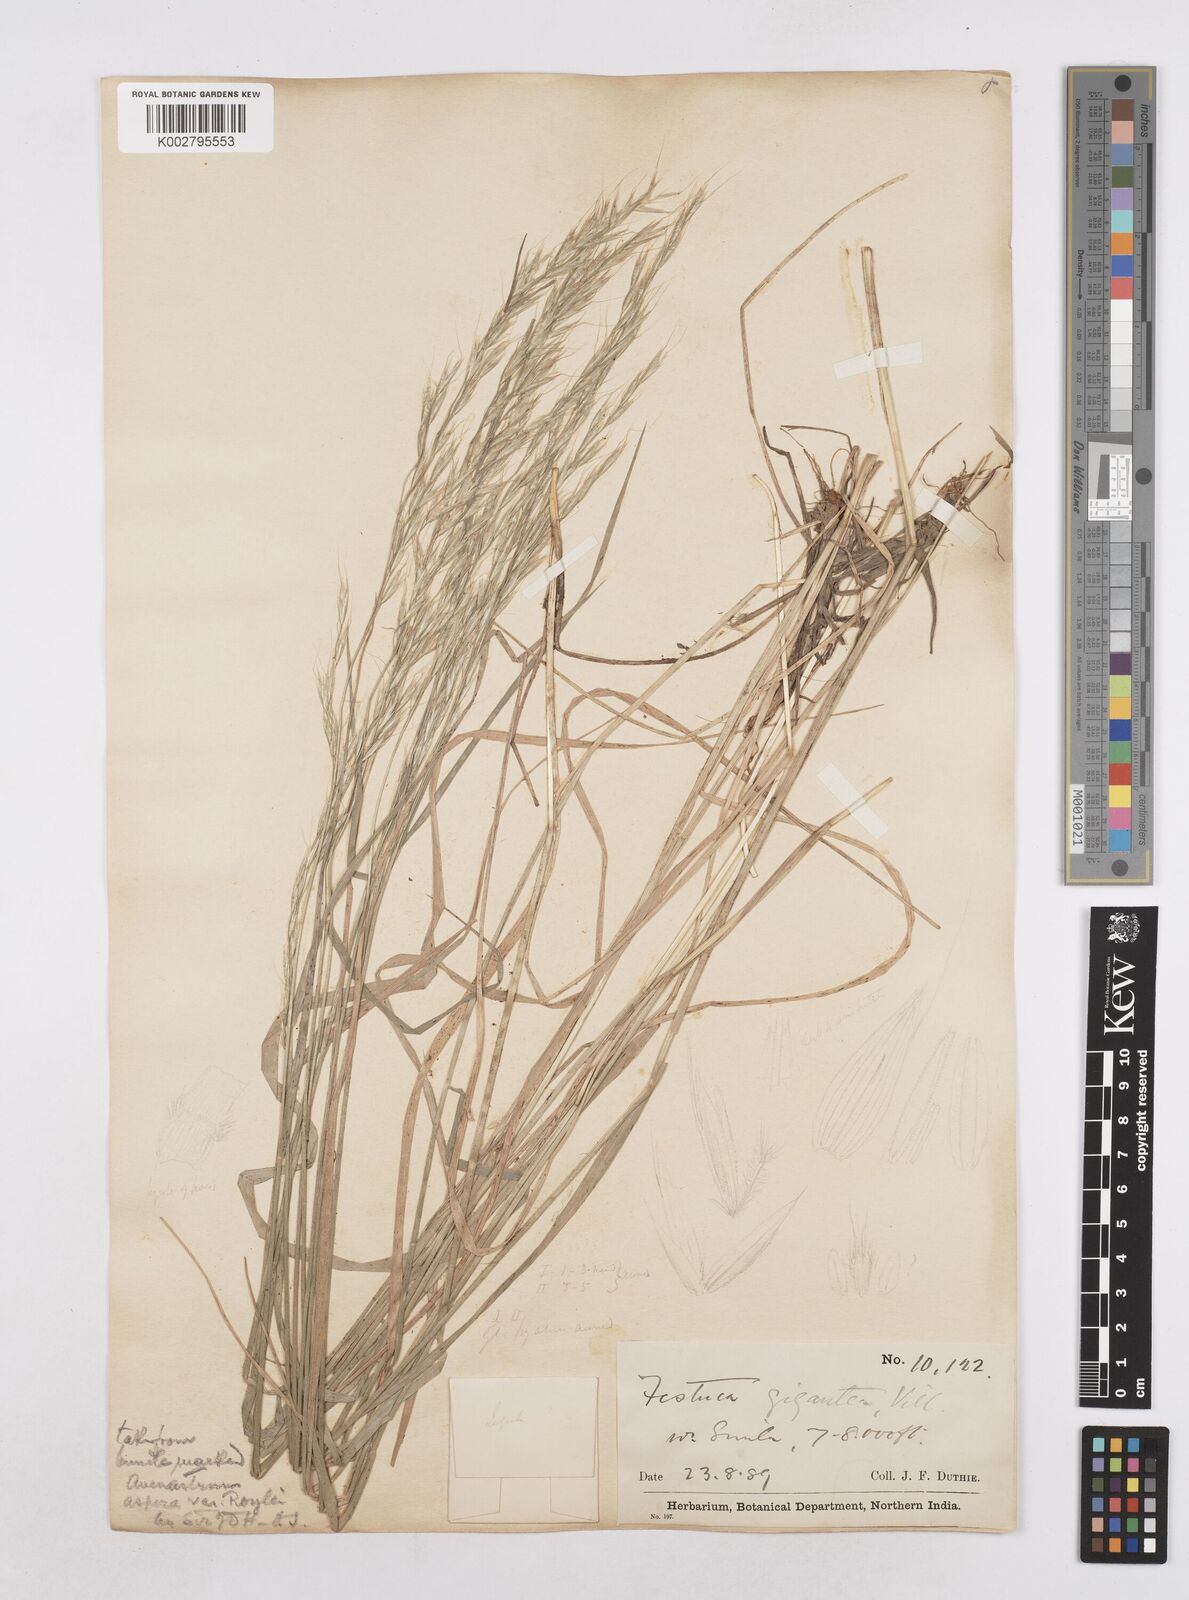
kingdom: Plantae
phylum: Tracheophyta
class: Liliopsida
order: Poales
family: Poaceae
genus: Trisetopsis
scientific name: Trisetopsis junghuhnii
